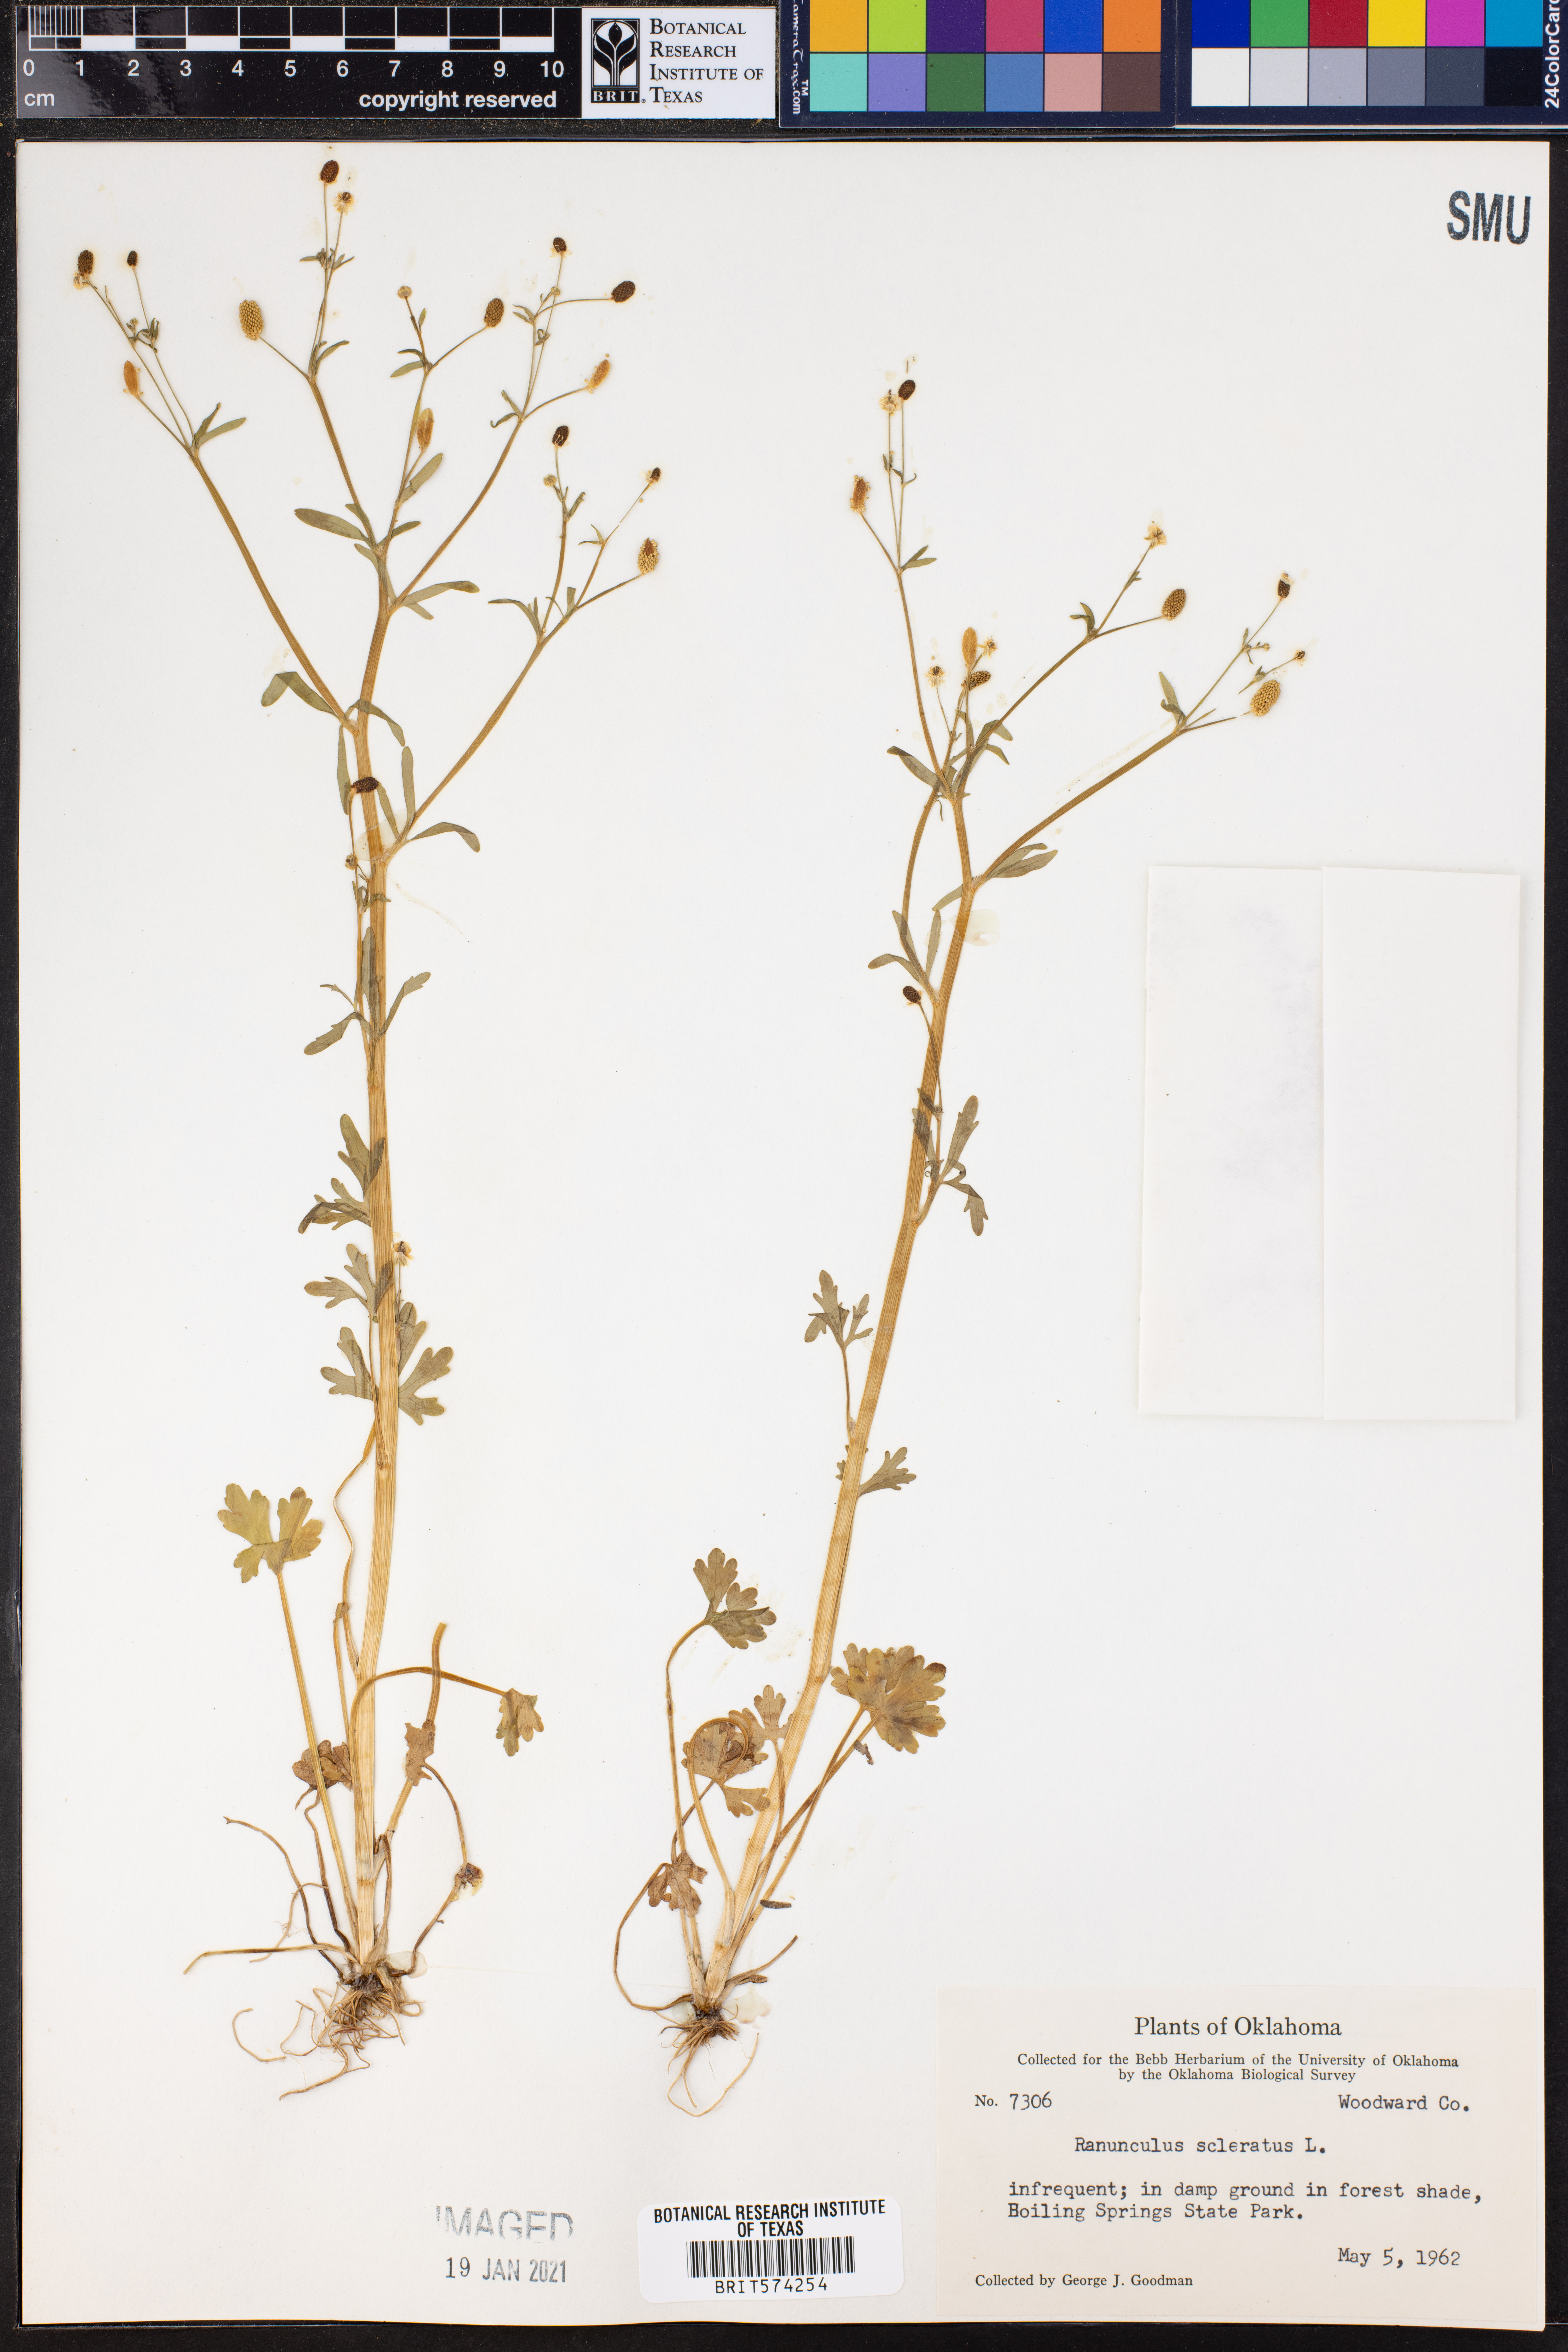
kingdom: Plantae
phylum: Tracheophyta
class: Magnoliopsida
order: Ranunculales
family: Ranunculaceae
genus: Ranunculus
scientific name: Ranunculus sceleratus
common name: Celery-leaved buttercup
